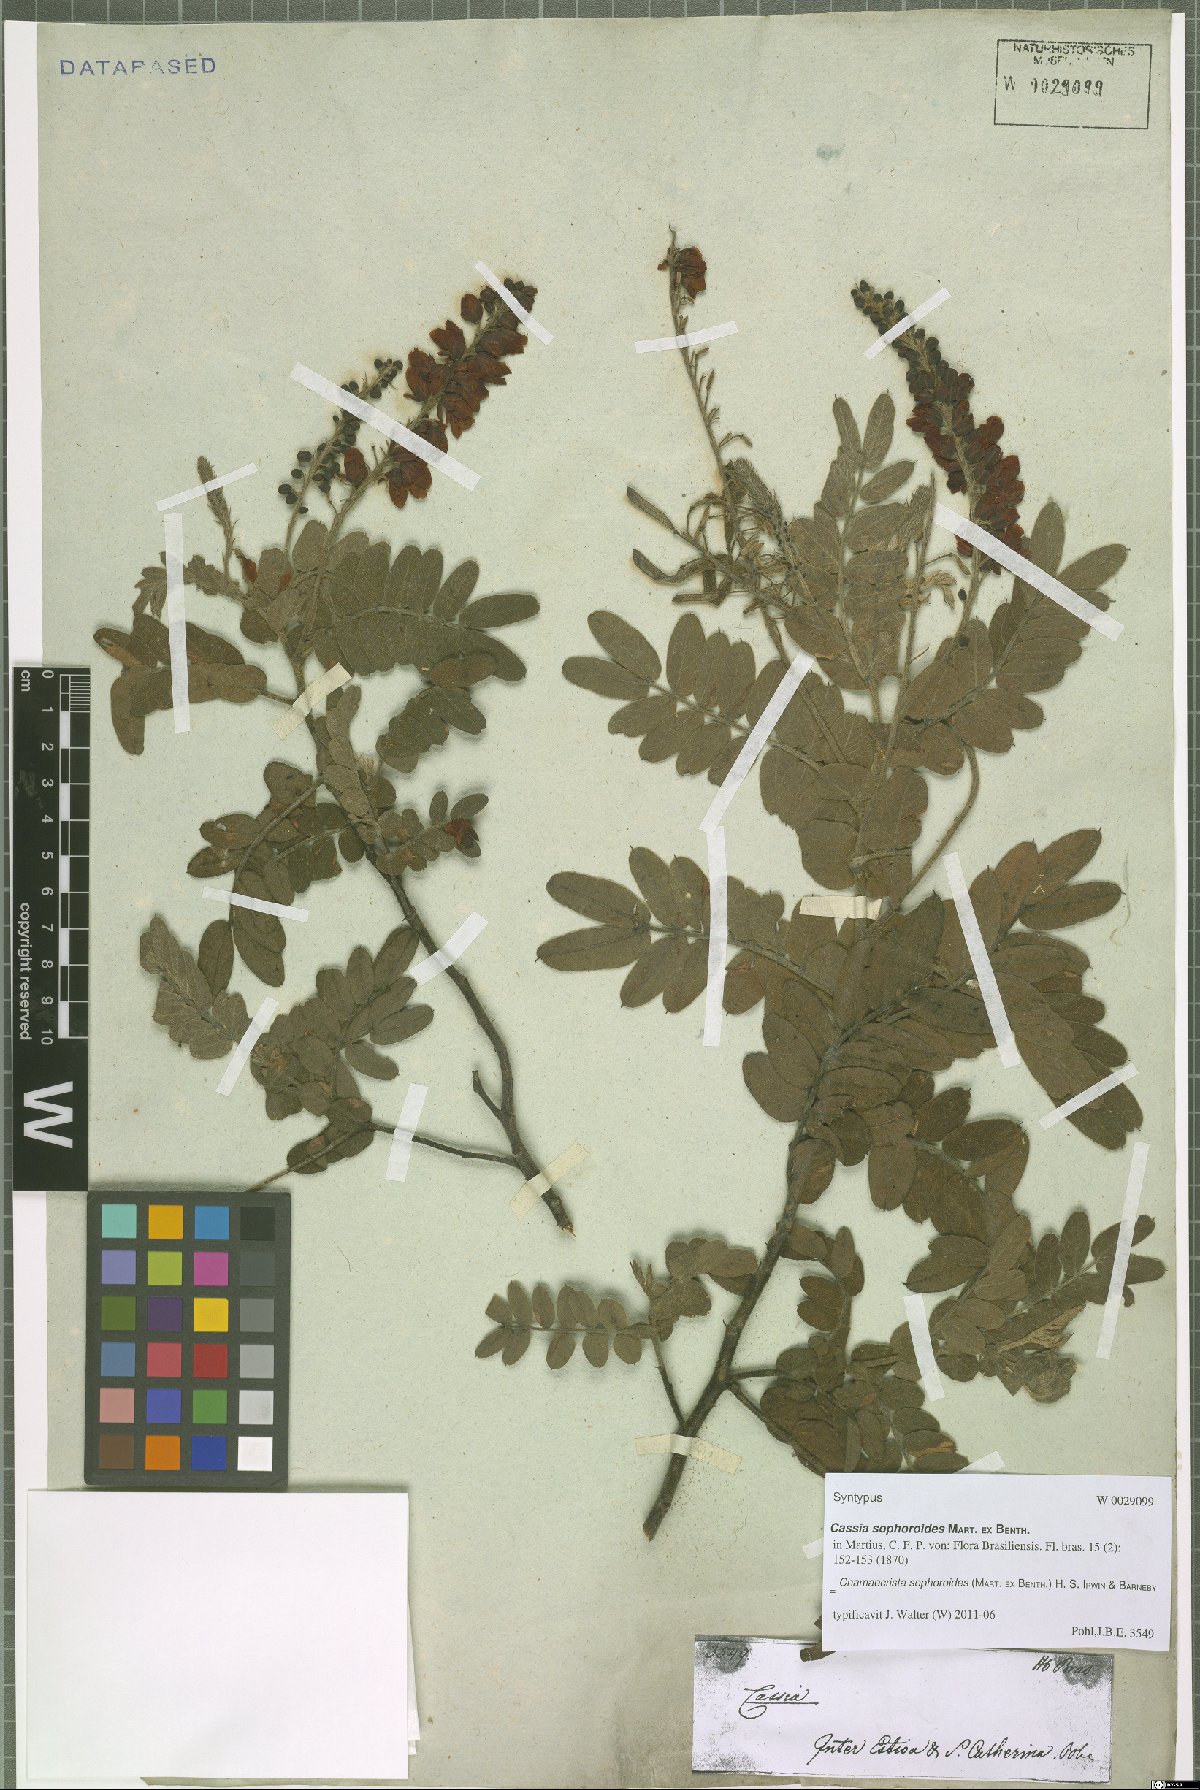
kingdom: Plantae
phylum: Tracheophyta
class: Magnoliopsida
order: Fabales
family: Fabaceae
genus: Chamaecrista
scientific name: Chamaecrista sophoroides
